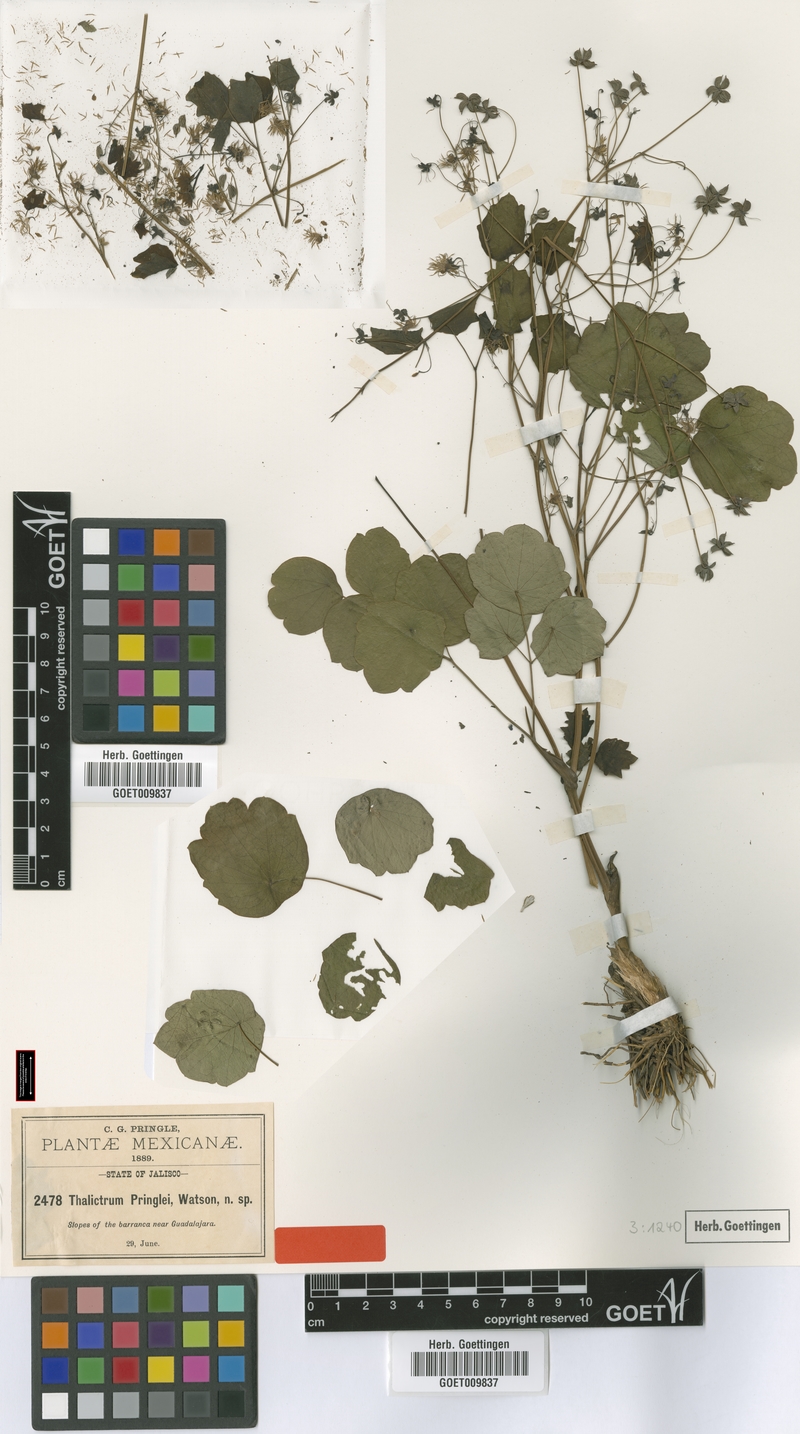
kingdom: Plantae
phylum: Tracheophyta
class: Magnoliopsida
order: Ranunculales
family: Ranunculaceae
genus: Thalictrum
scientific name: Thalictrum pringlei
